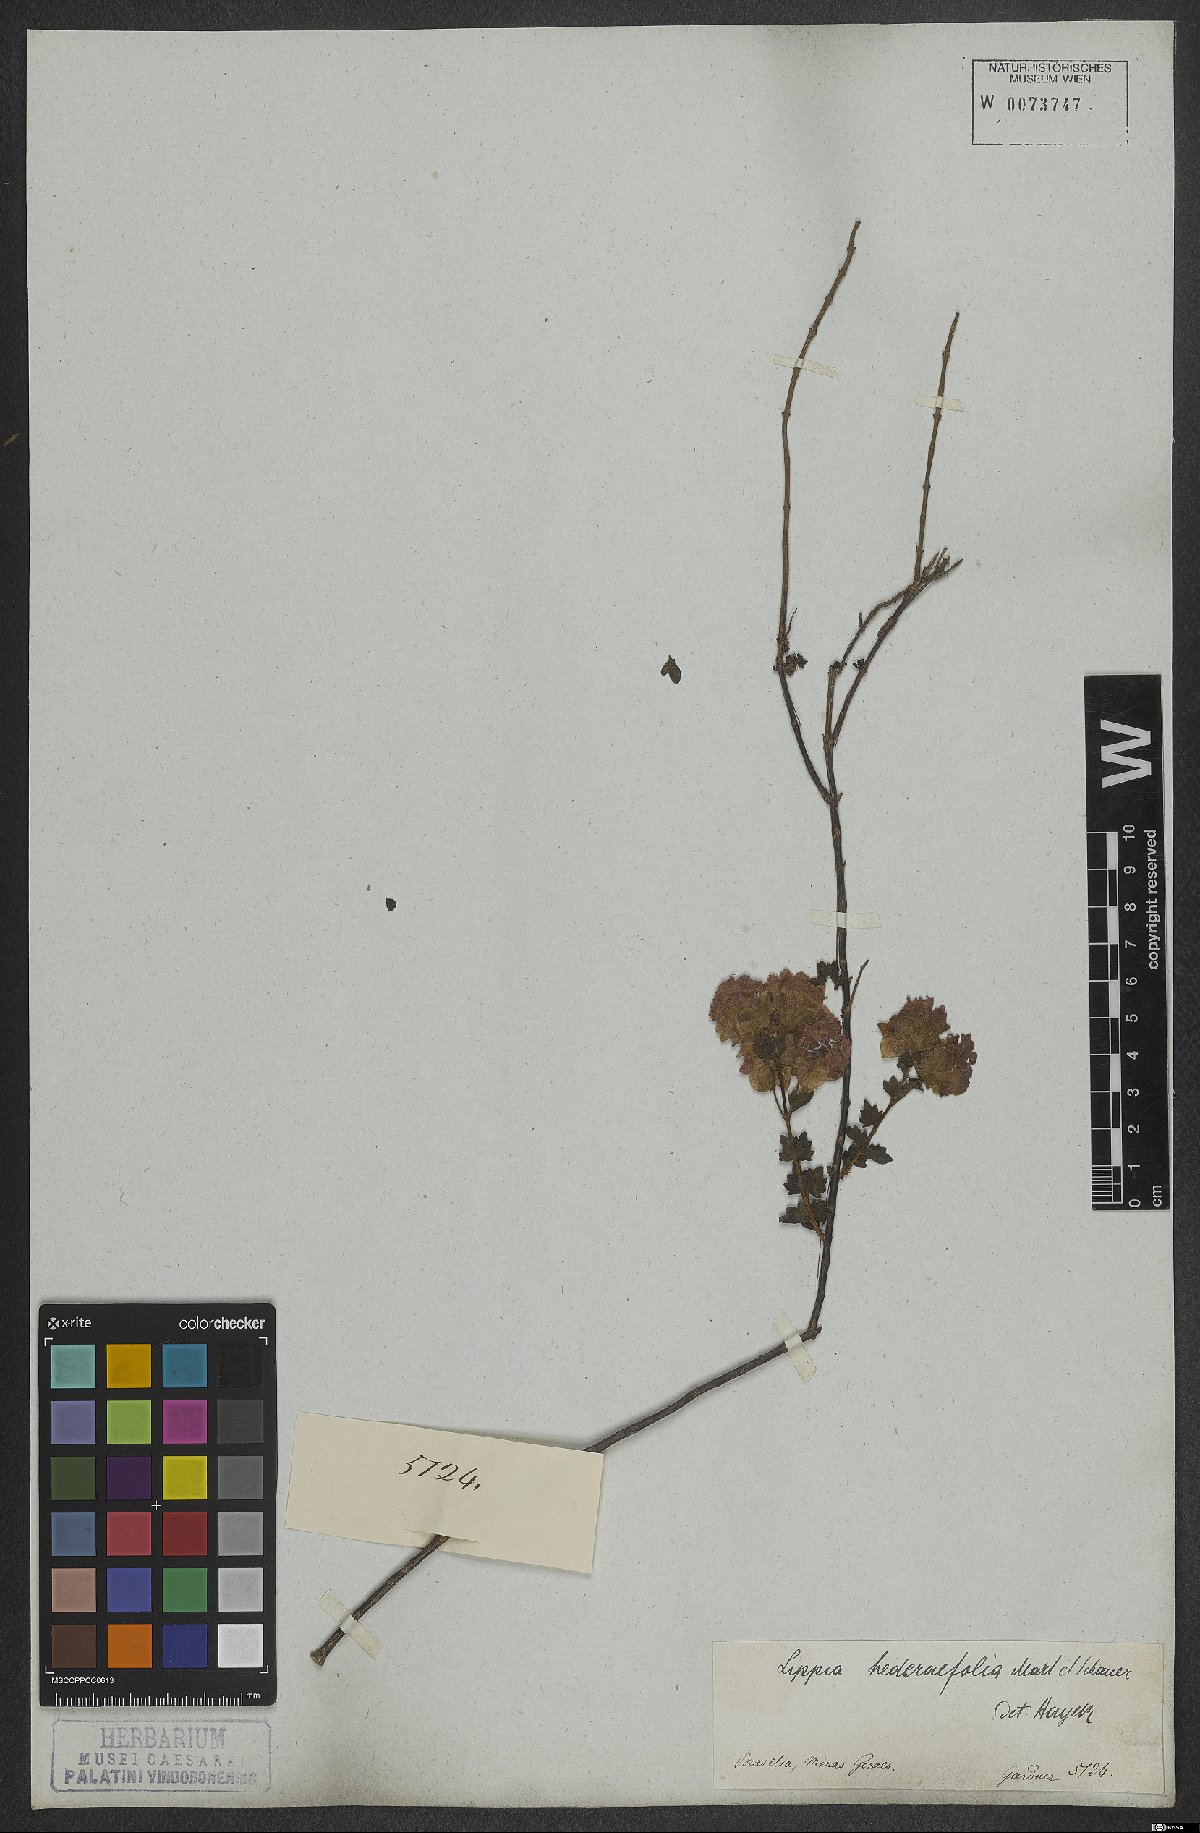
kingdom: Plantae
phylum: Tracheophyta
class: Magnoliopsida
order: Lamiales
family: Verbenaceae
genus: Lippia
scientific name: Lippia hederifolia
